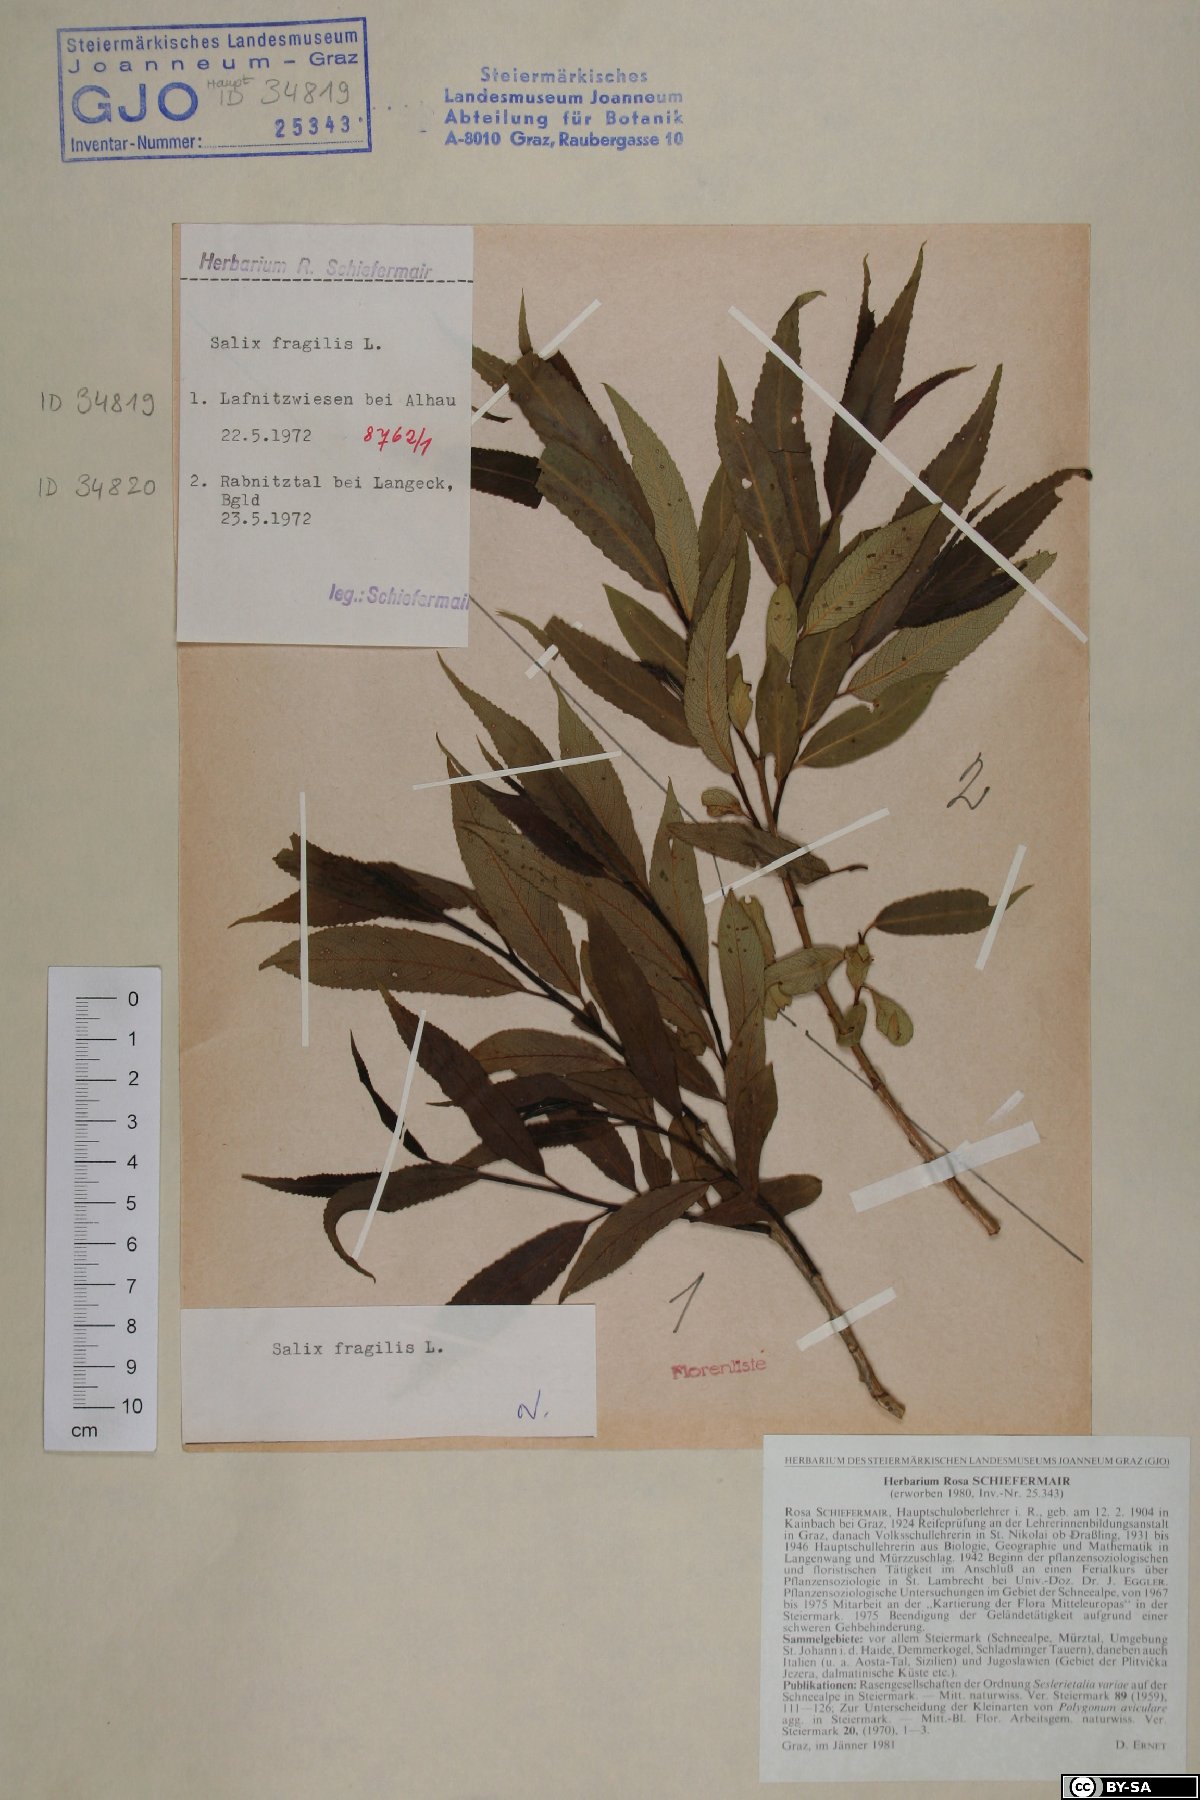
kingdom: Plantae
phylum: Tracheophyta
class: Magnoliopsida
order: Malpighiales
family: Salicaceae
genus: Salix
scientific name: Salix fragilis
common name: Crack willow
